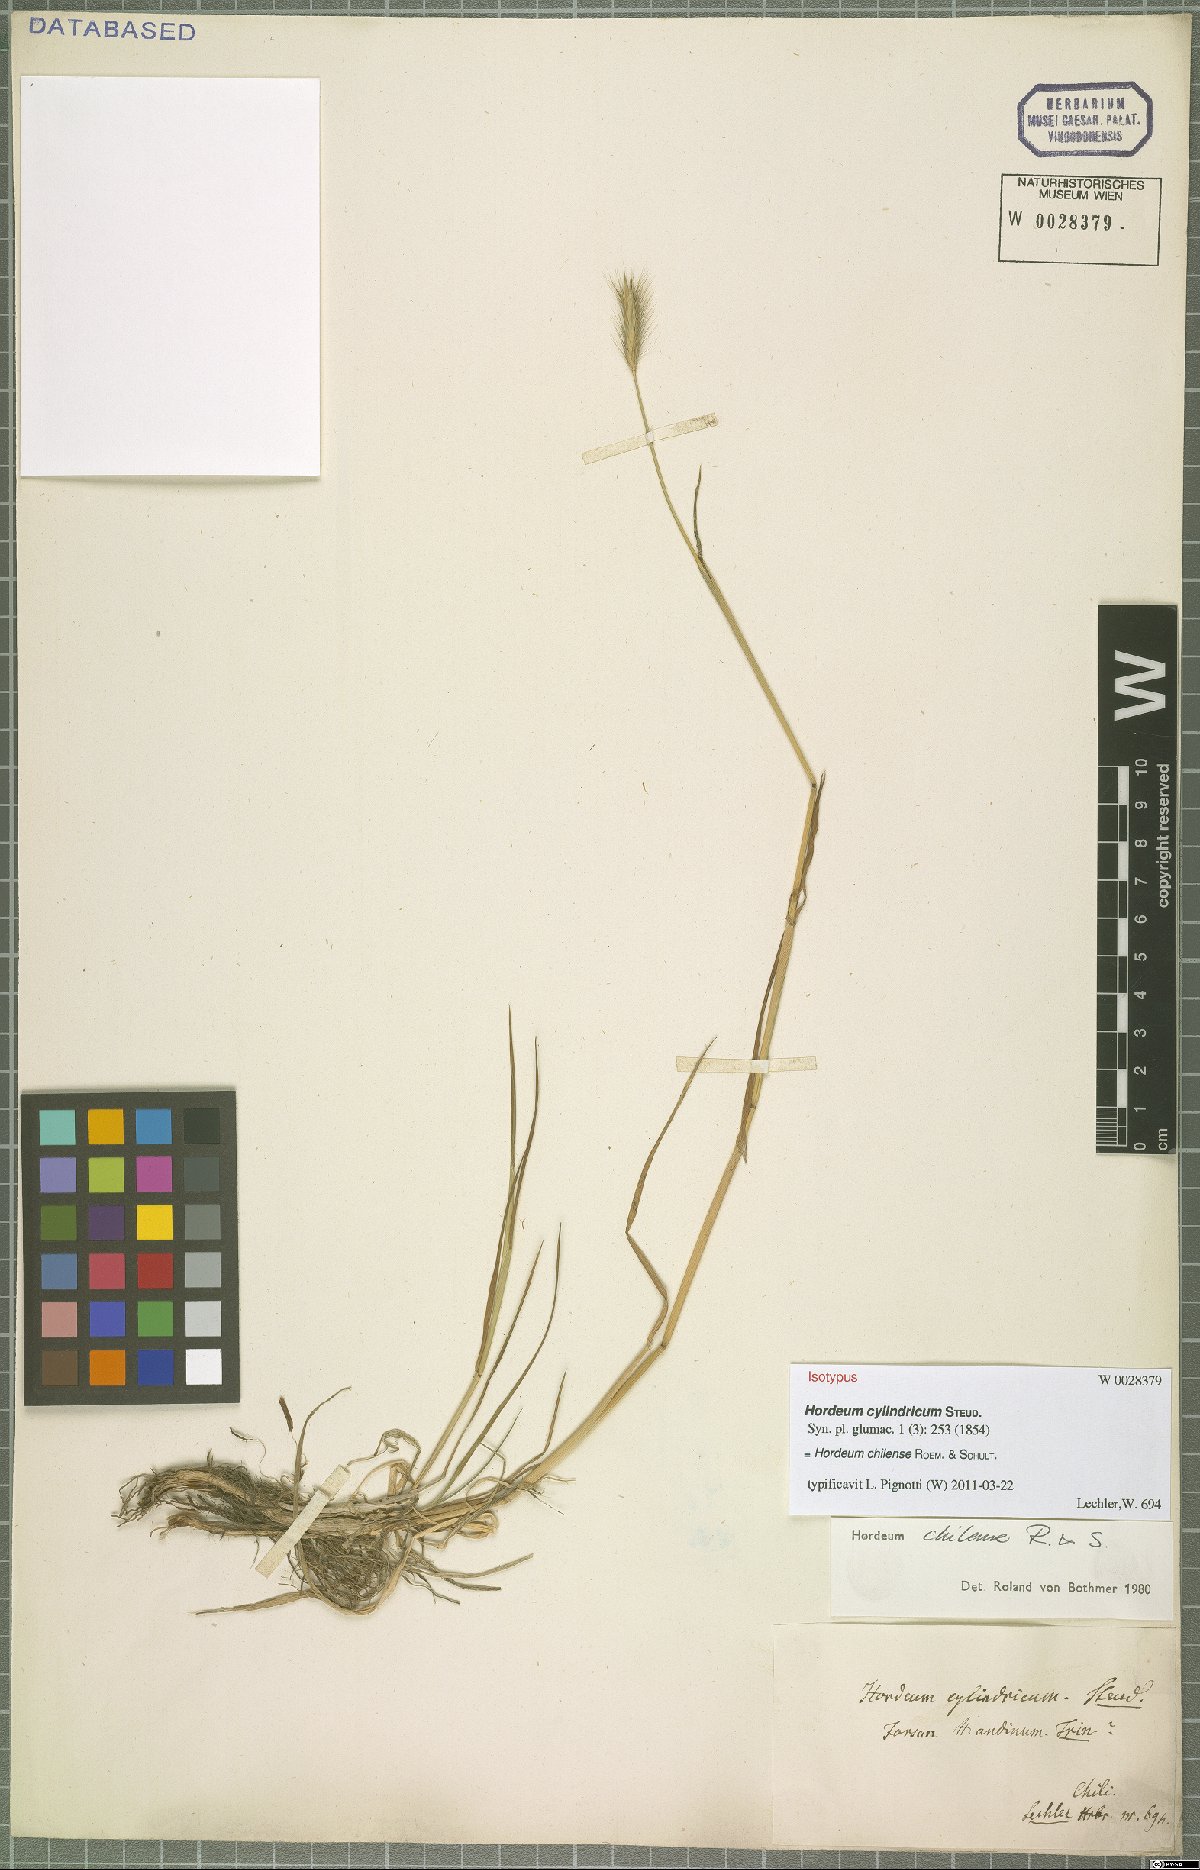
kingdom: Plantae
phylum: Tracheophyta
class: Liliopsida
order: Poales
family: Poaceae
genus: Hordeum
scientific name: Hordeum chilense
